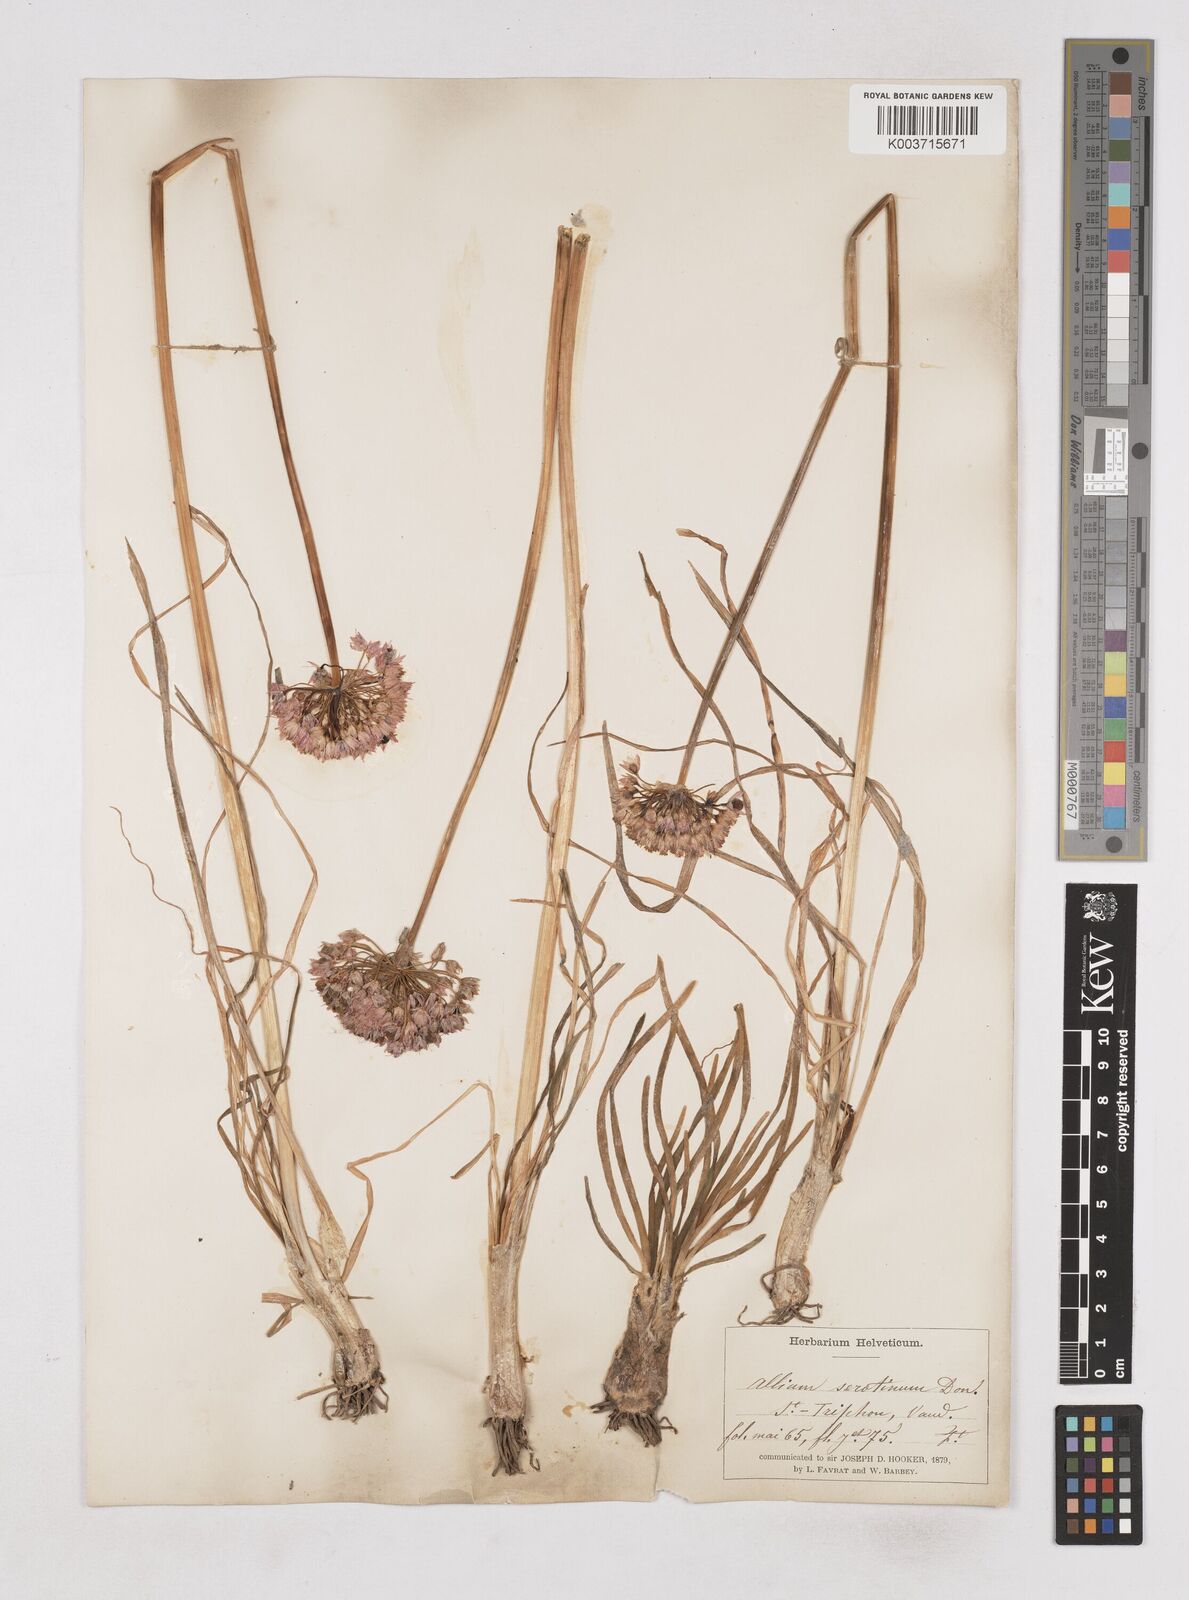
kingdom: Plantae
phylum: Tracheophyta
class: Liliopsida
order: Asparagales
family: Amaryllidaceae
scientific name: Amaryllidaceae
